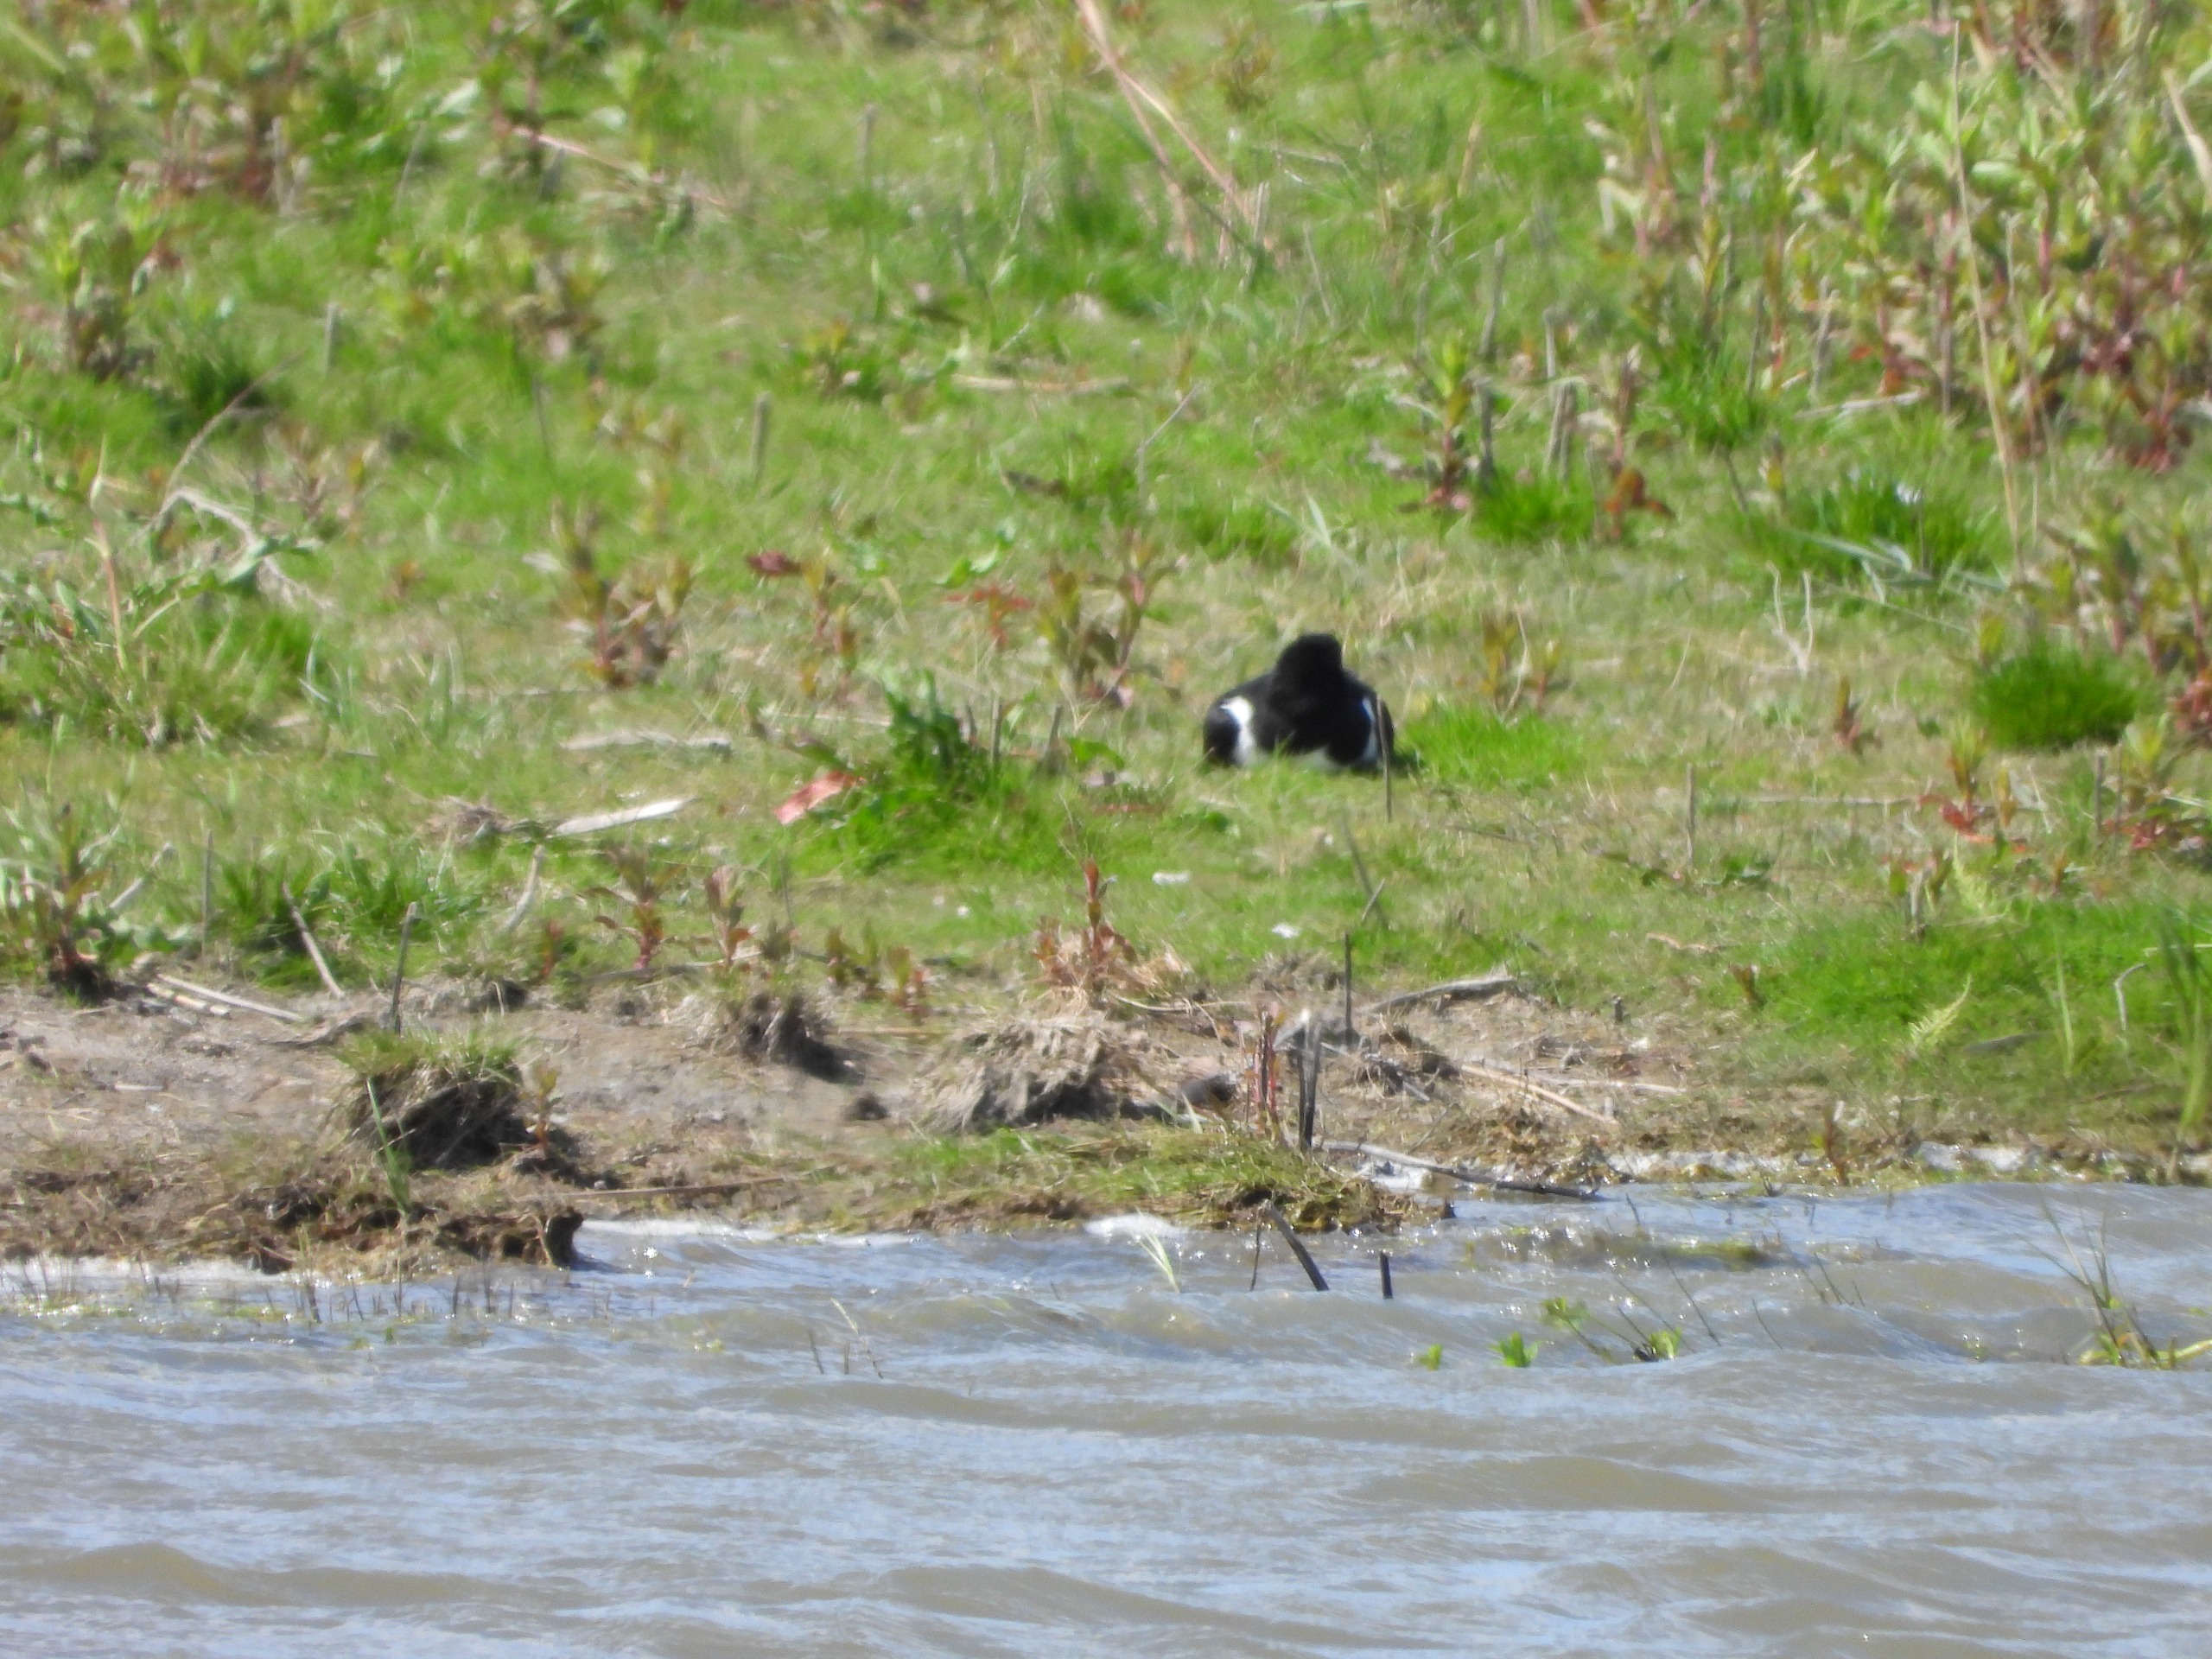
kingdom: Animalia
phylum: Chordata
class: Aves
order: Charadriiformes
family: Haematopodidae
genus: Haematopus
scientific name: Haematopus ostralegus
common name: Strandskade
